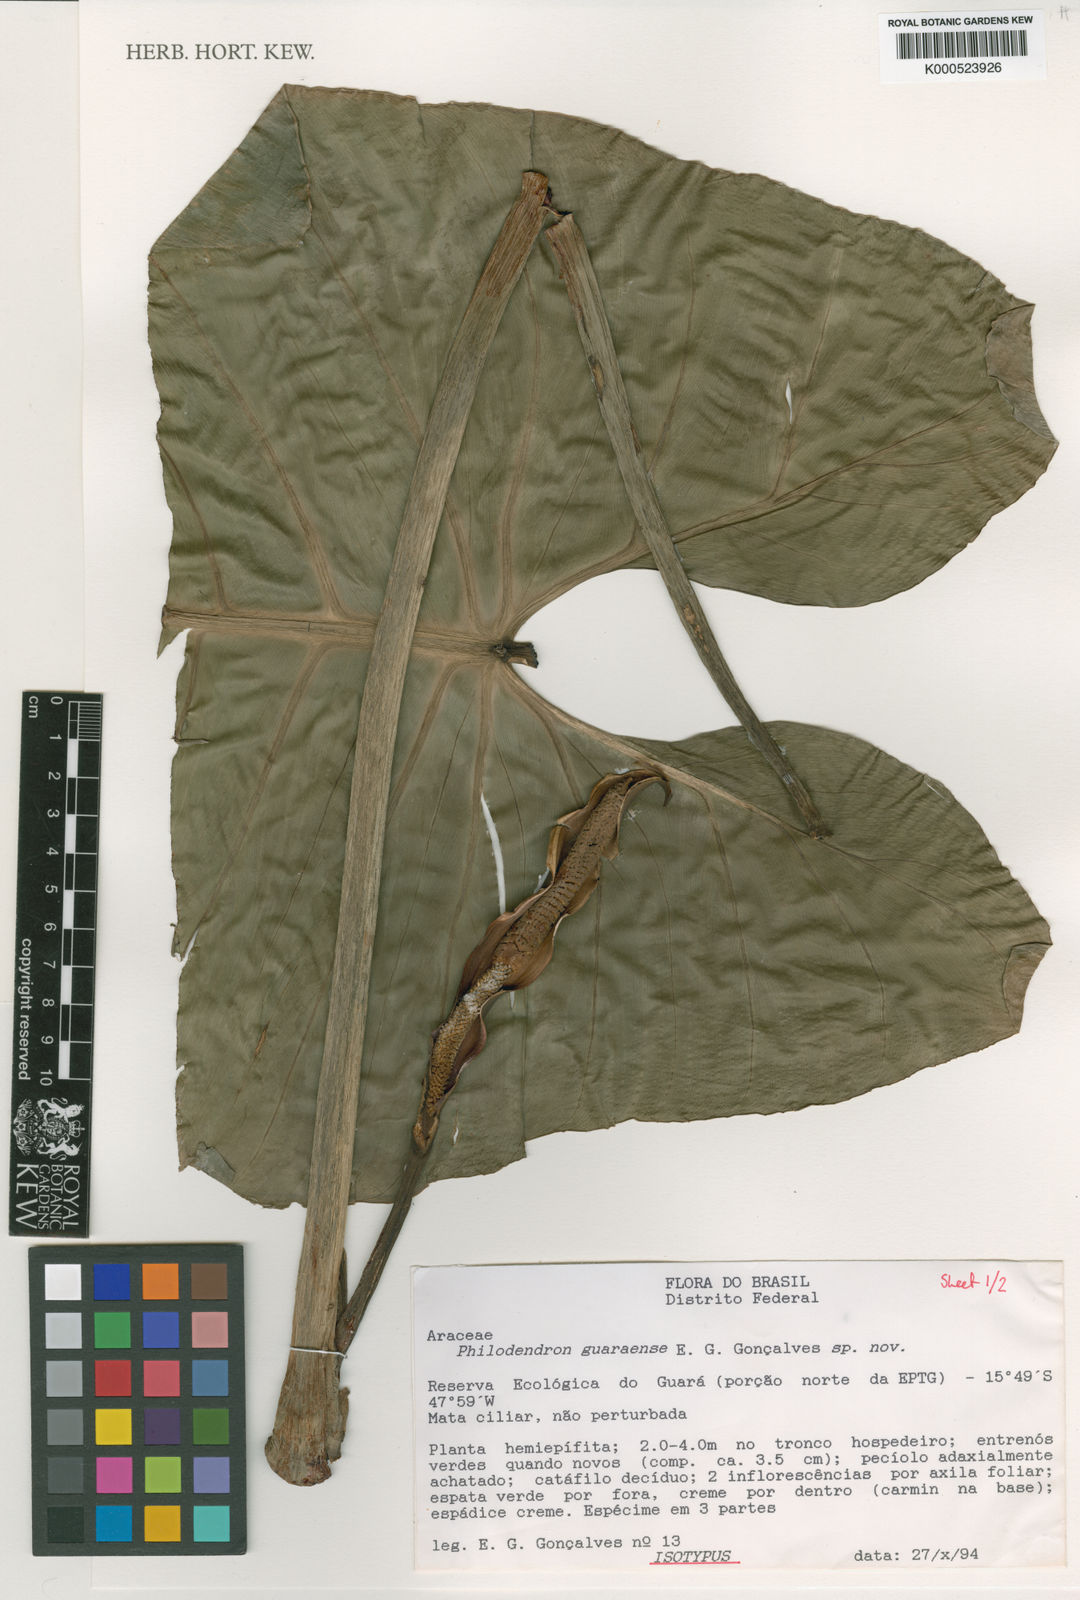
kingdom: Plantae
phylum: Tracheophyta
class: Liliopsida
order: Alismatales
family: Araceae
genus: Philodendron
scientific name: Philodendron quinquenervium
